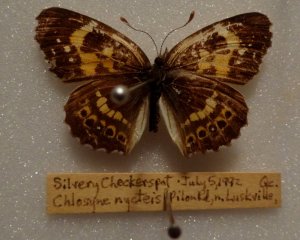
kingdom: Animalia
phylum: Arthropoda
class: Insecta
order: Lepidoptera
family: Nymphalidae
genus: Chlosyne
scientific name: Chlosyne nycteis
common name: Silvery Checkerspot
